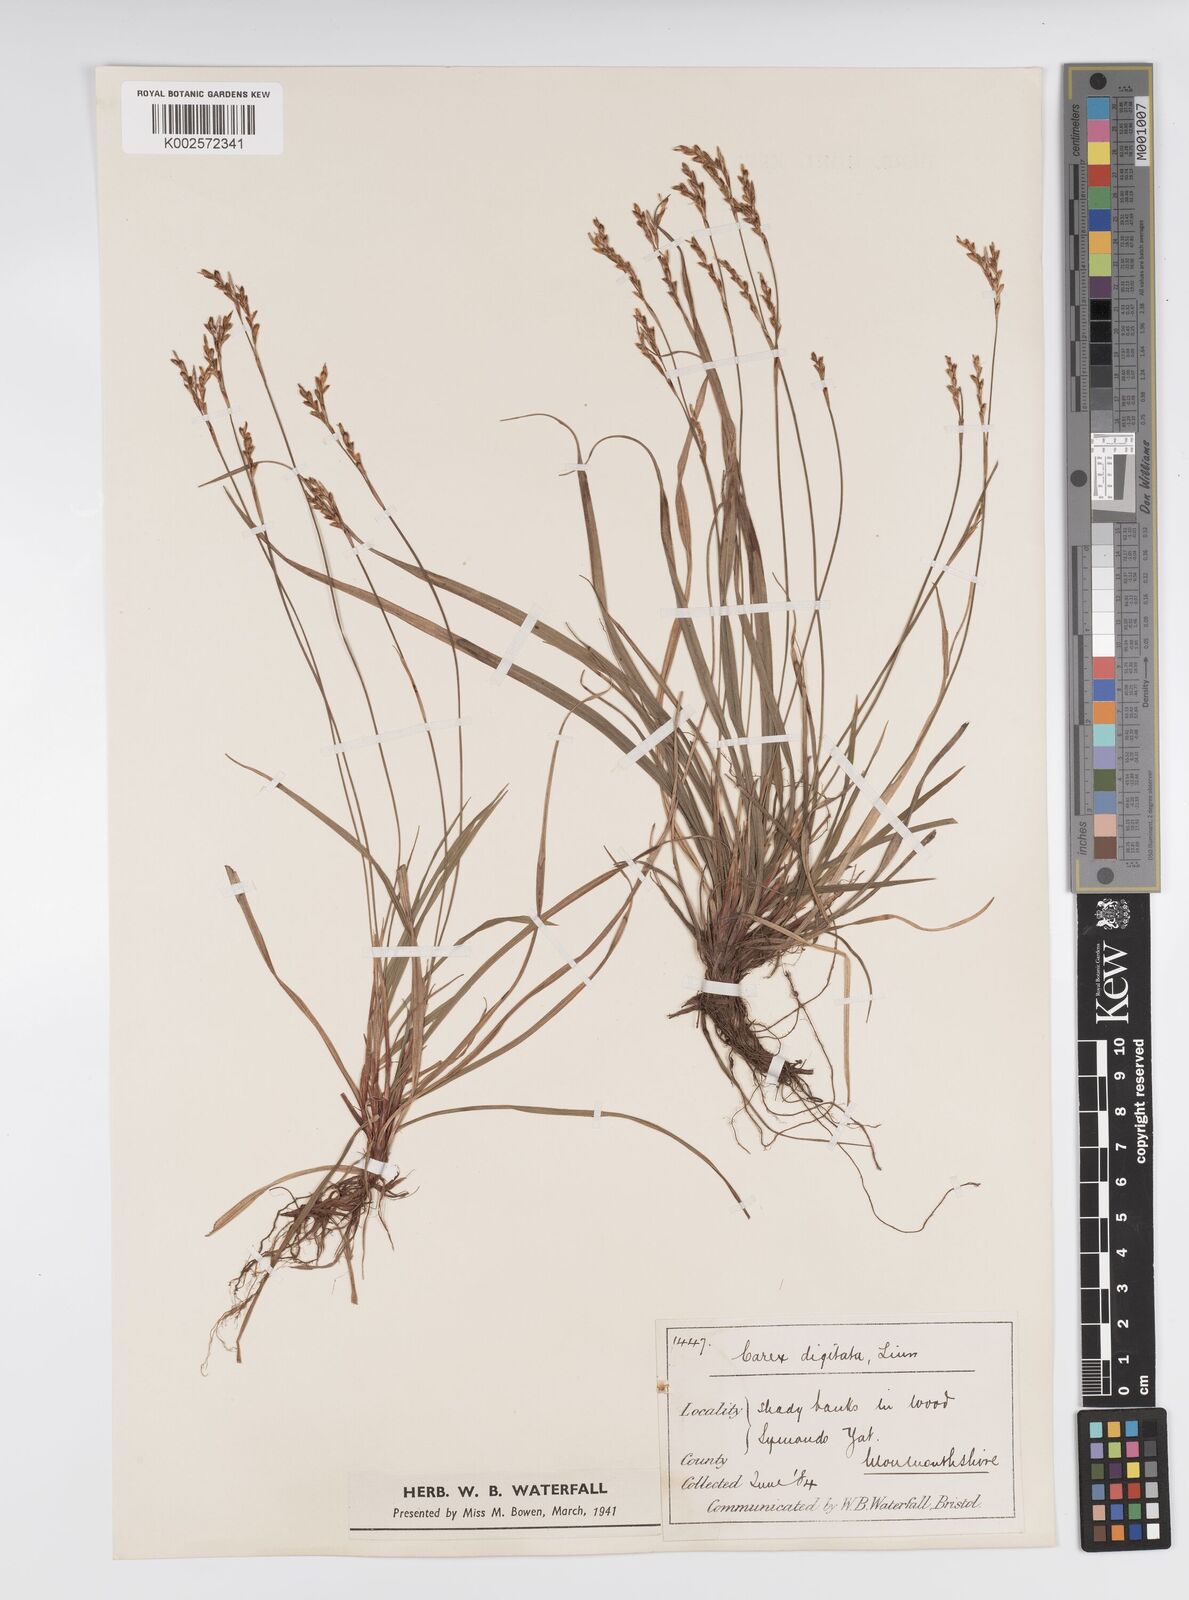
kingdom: Plantae
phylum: Tracheophyta
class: Liliopsida
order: Poales
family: Cyperaceae
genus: Carex
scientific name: Carex digitata
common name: Fingered sedge
